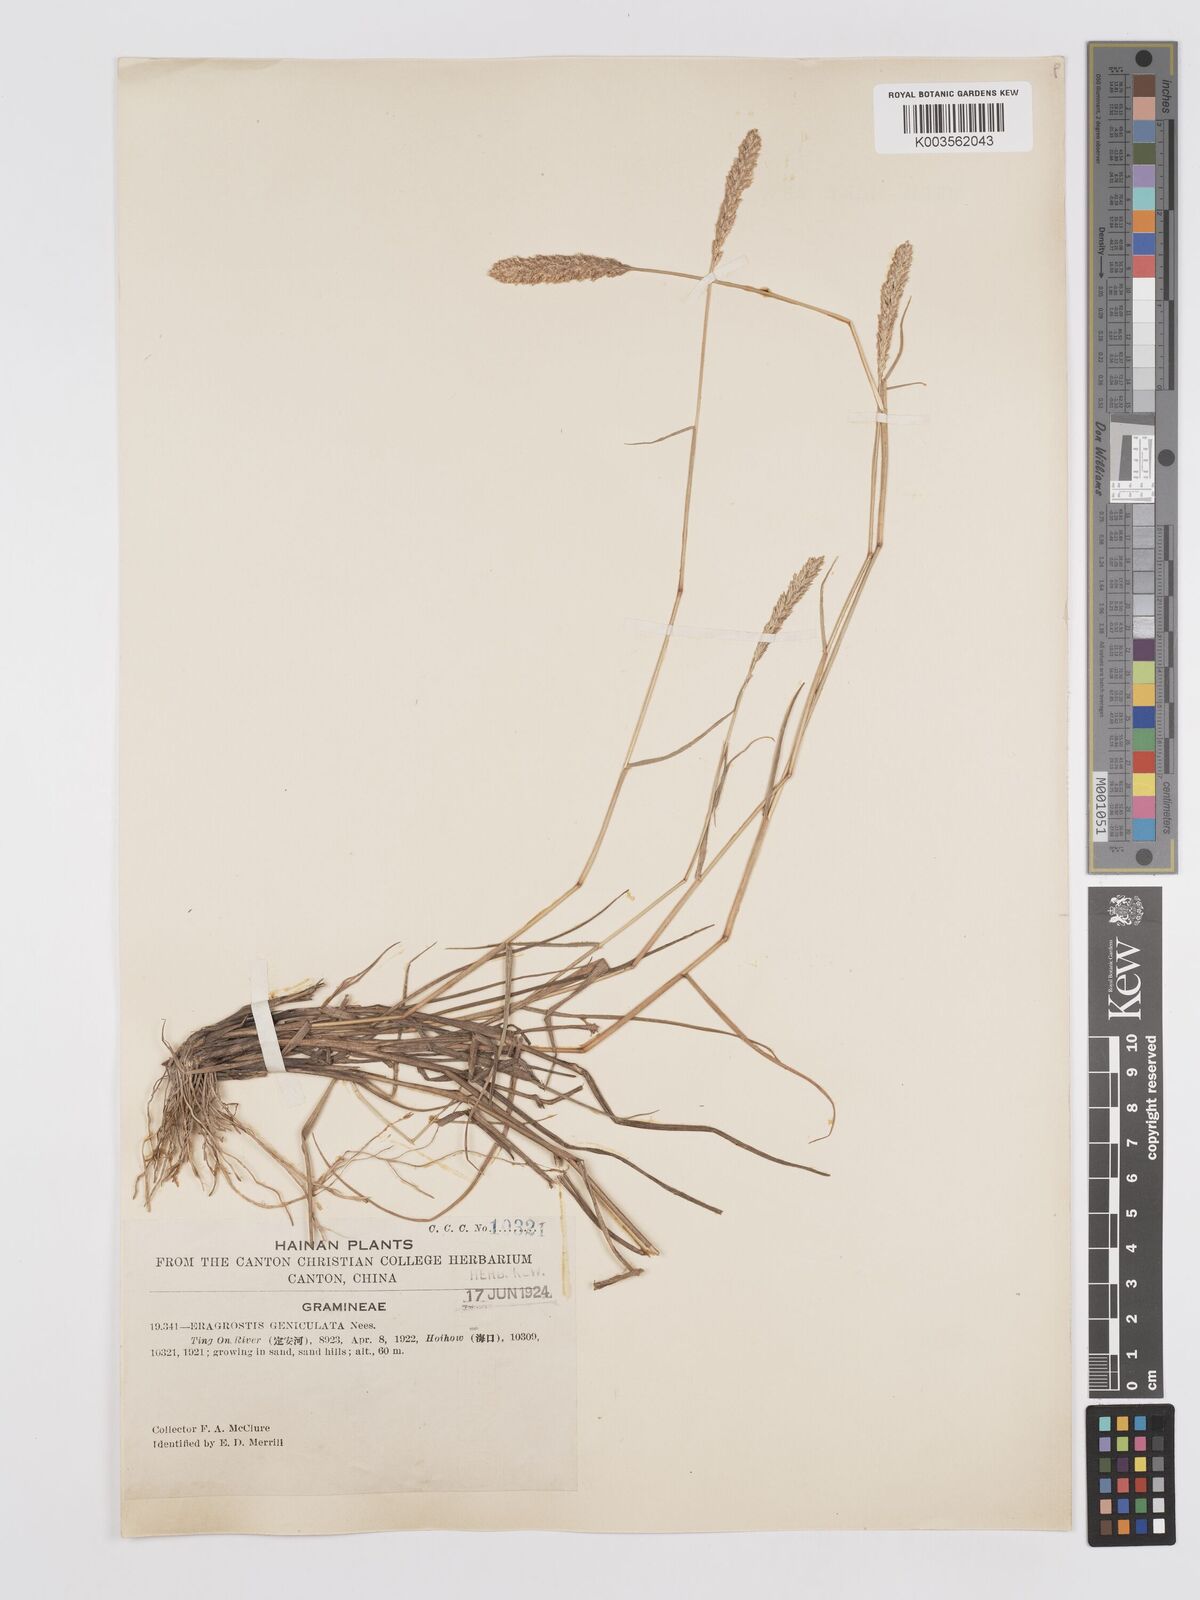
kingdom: Plantae
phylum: Tracheophyta
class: Liliopsida
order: Poales
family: Poaceae
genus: Eragrostis
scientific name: Eragrostis cylindrica
